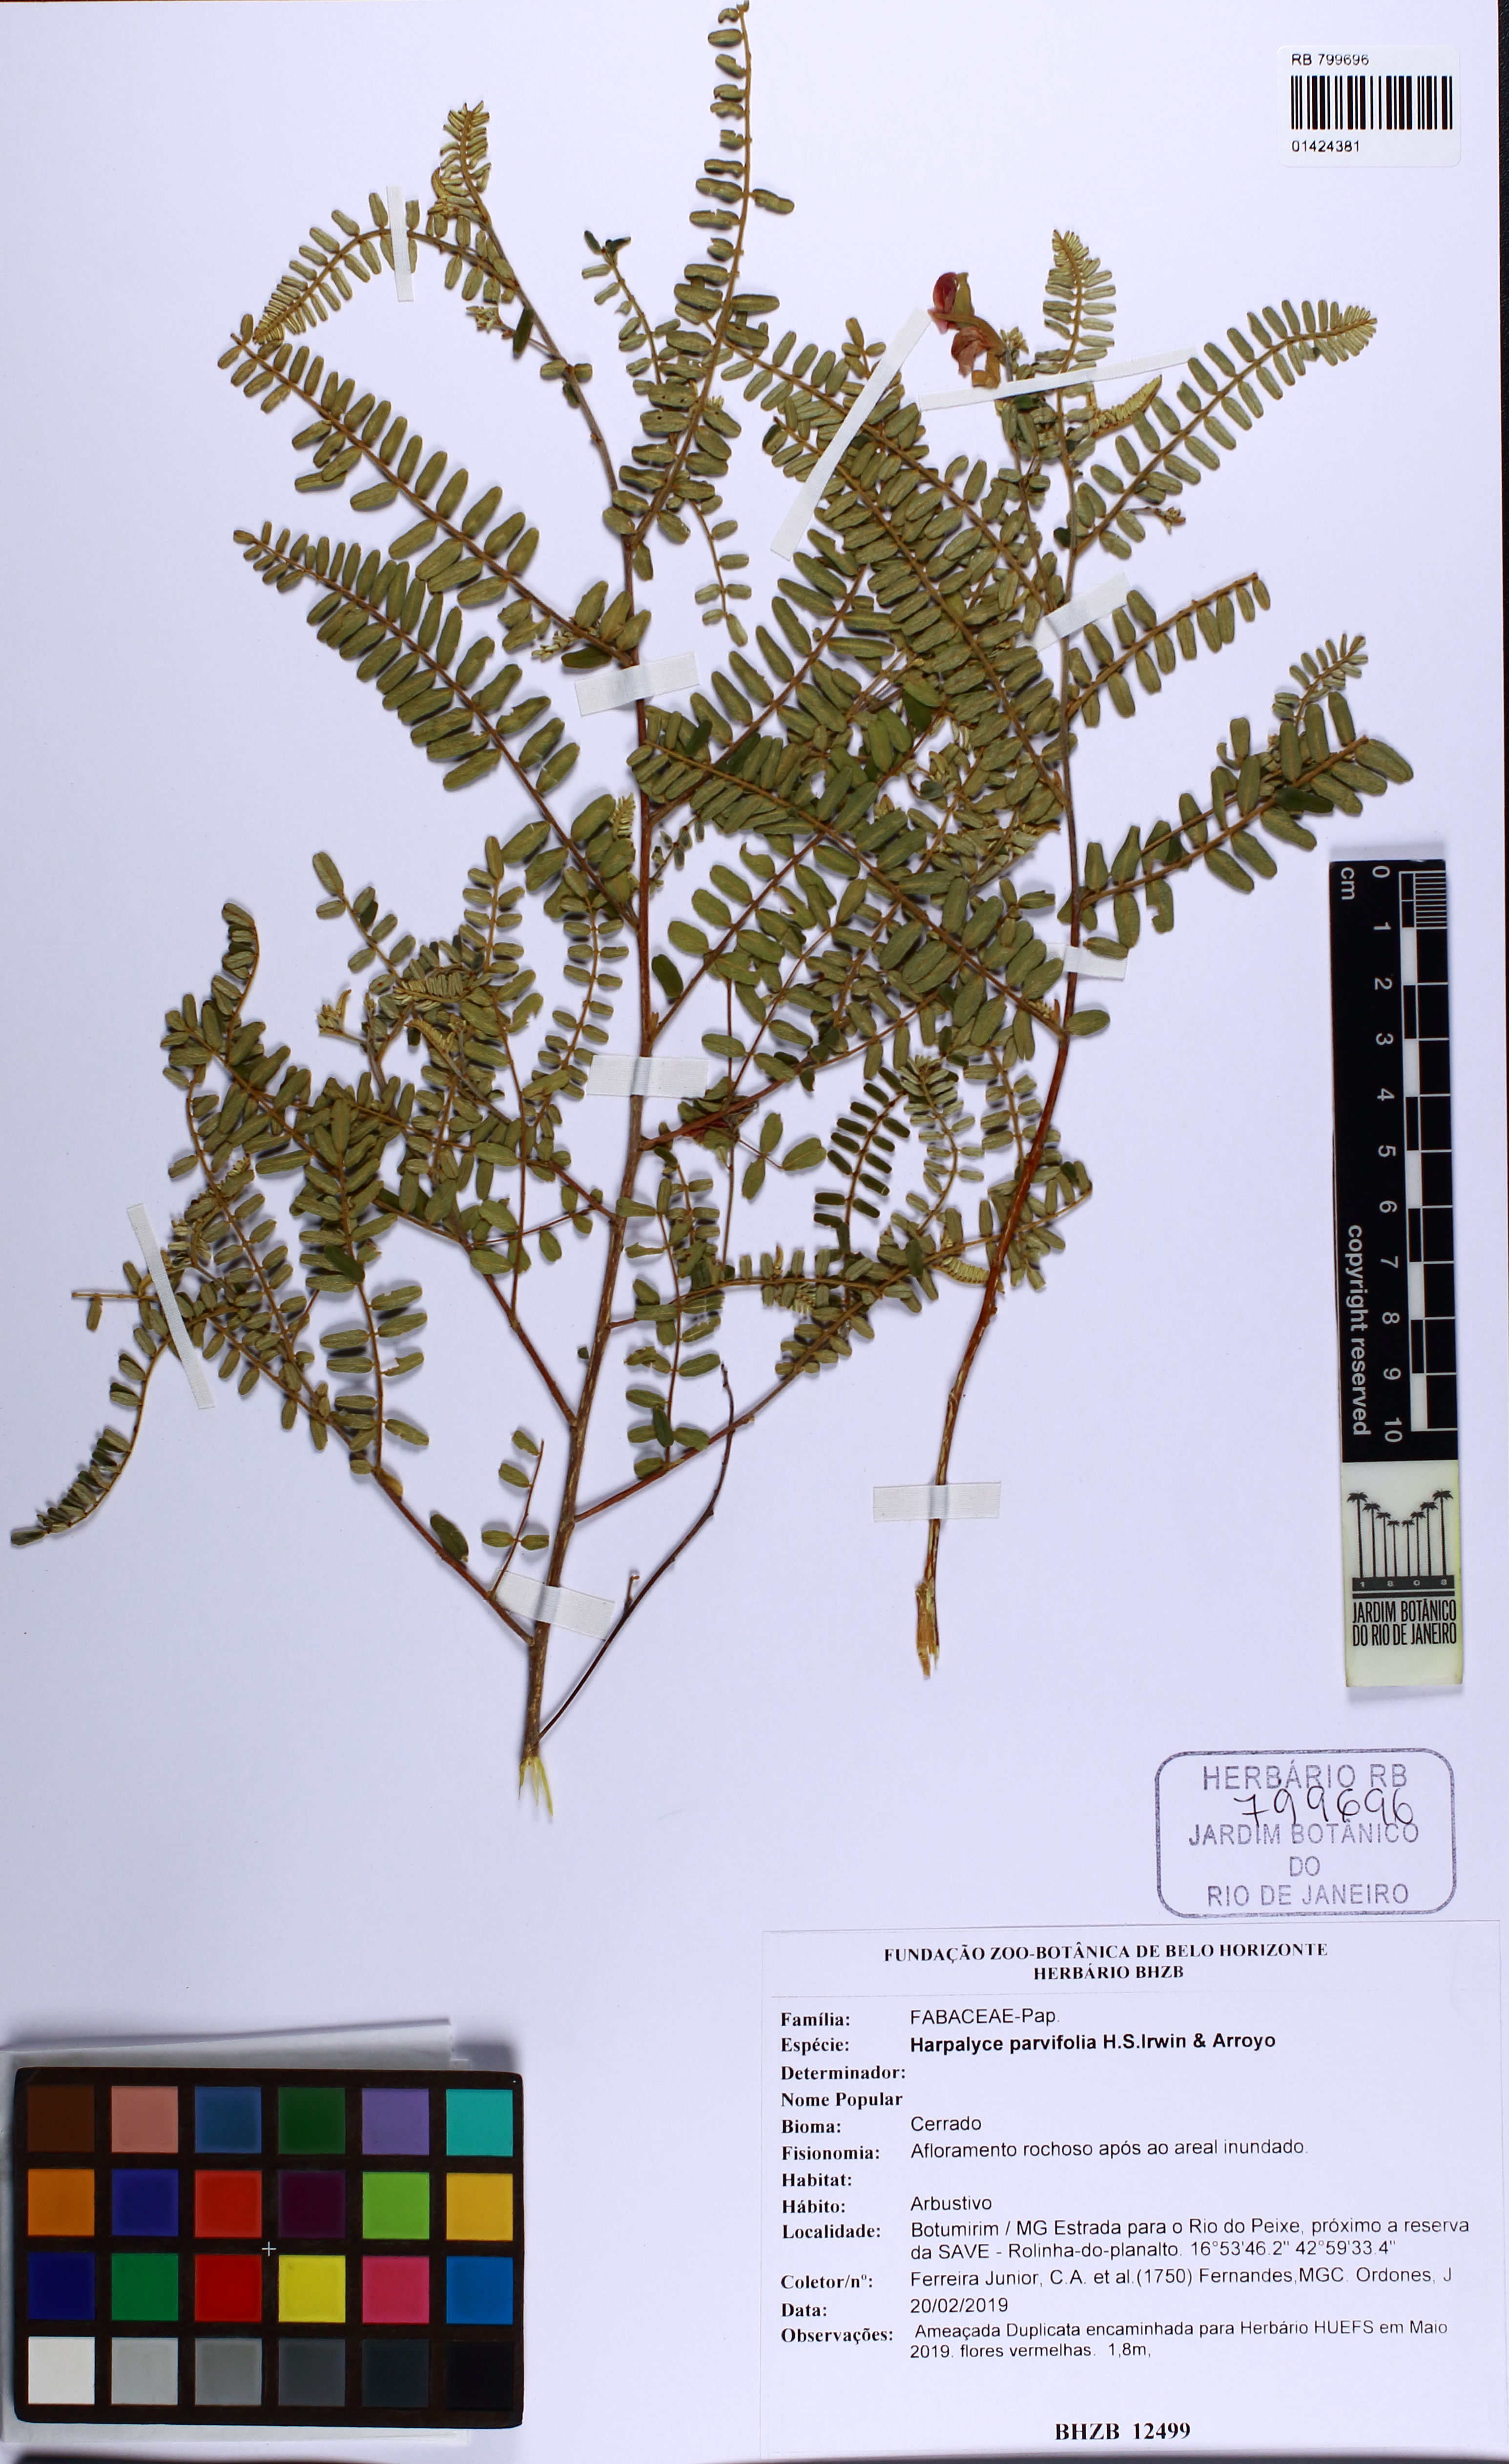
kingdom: Plantae
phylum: Tracheophyta
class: Magnoliopsida
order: Fabales
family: Fabaceae
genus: Harpalyce
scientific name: Harpalyce parvifolia
